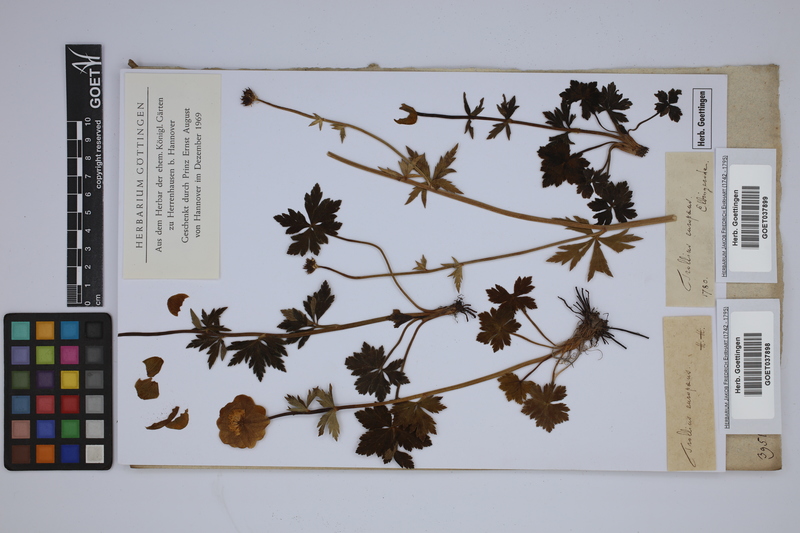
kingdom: Plantae
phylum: Tracheophyta
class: Magnoliopsida
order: Ranunculales
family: Ranunculaceae
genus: Trollius
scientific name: Trollius europaeus
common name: European globeflower
